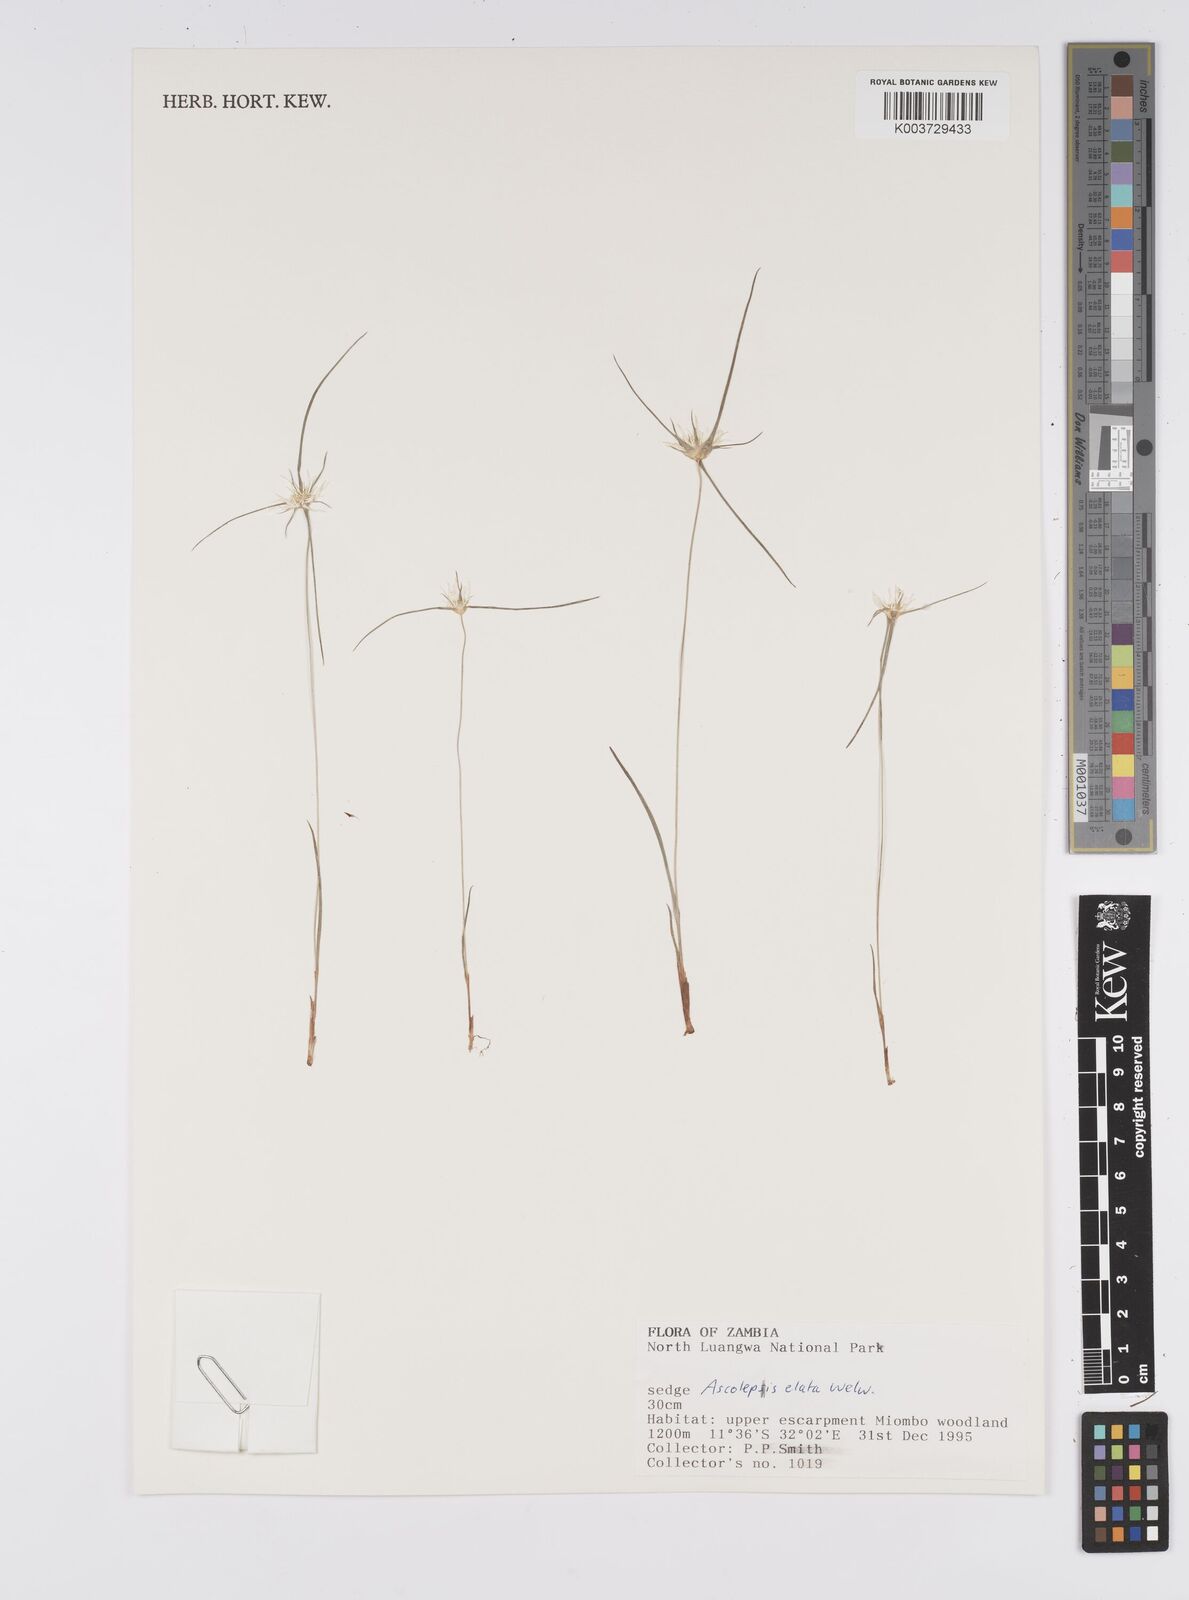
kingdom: Plantae
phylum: Tracheophyta
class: Liliopsida
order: Poales
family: Cyperaceae
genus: Cyperus
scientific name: Cyperus
